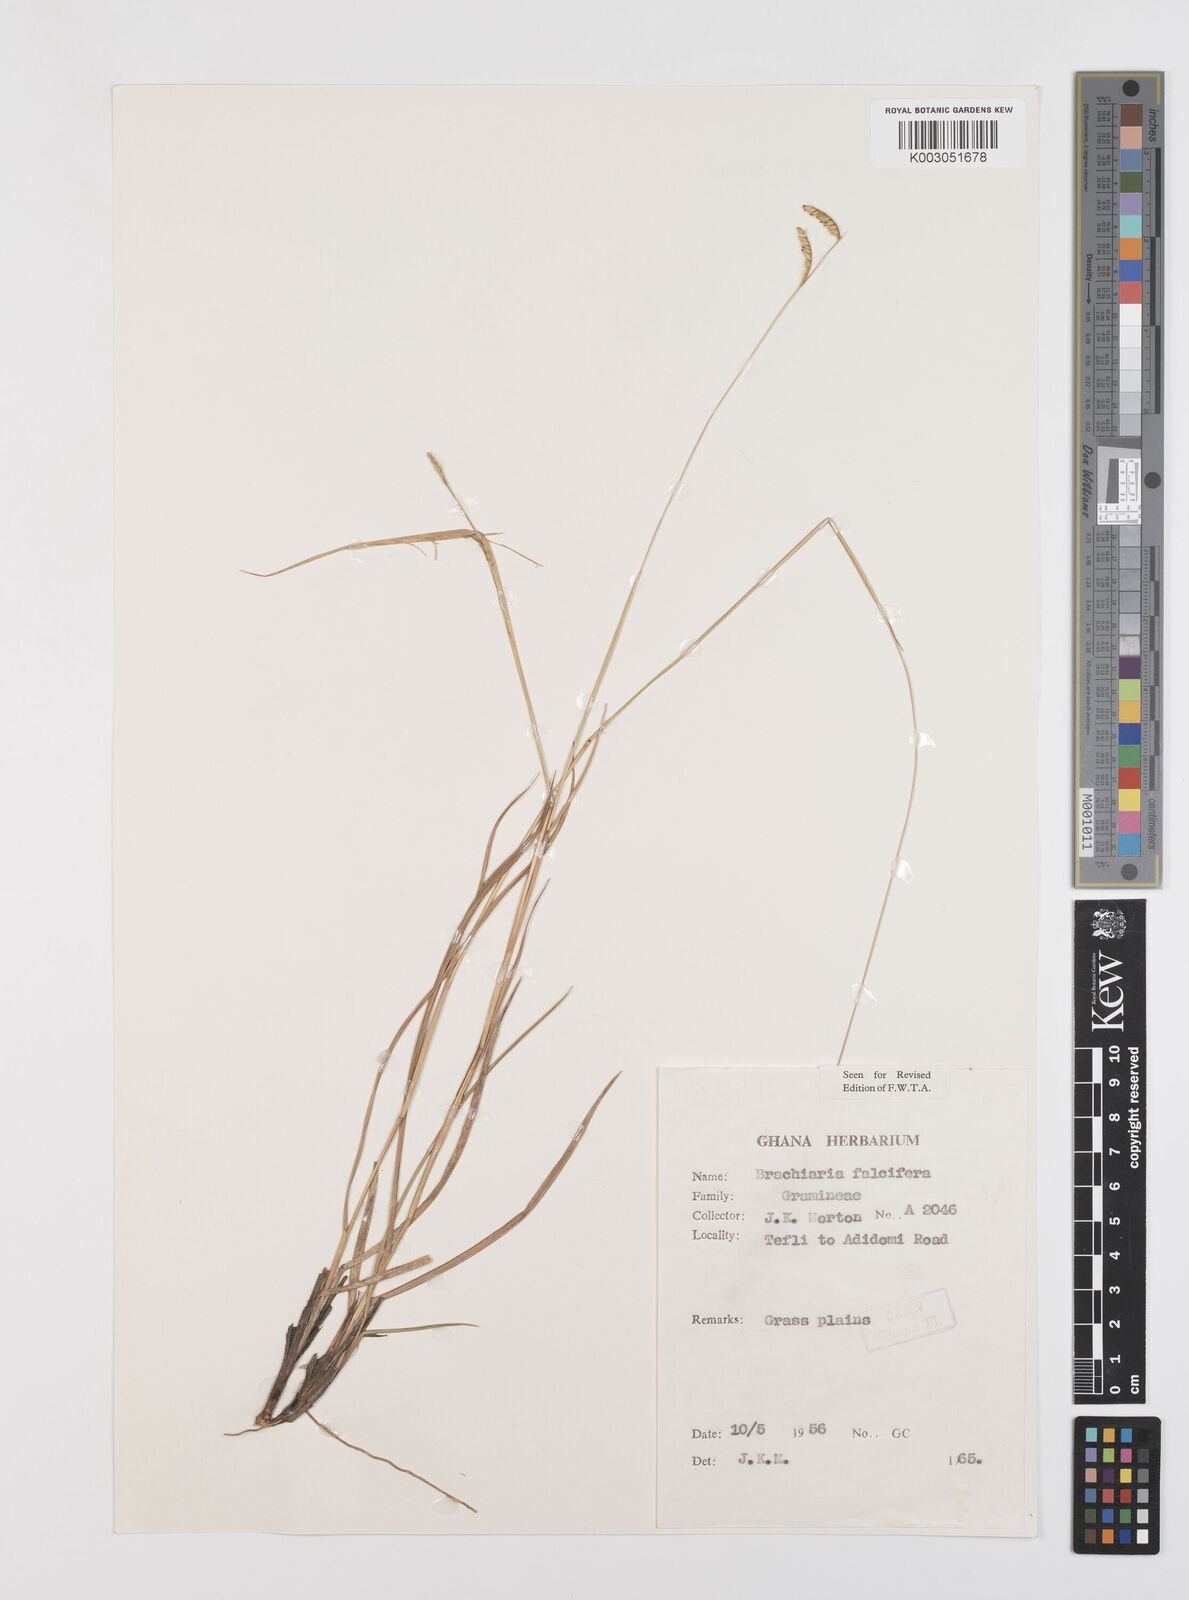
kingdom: Plantae
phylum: Tracheophyta
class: Liliopsida
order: Poales
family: Poaceae
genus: Urochloa
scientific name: Urochloa falcifera
